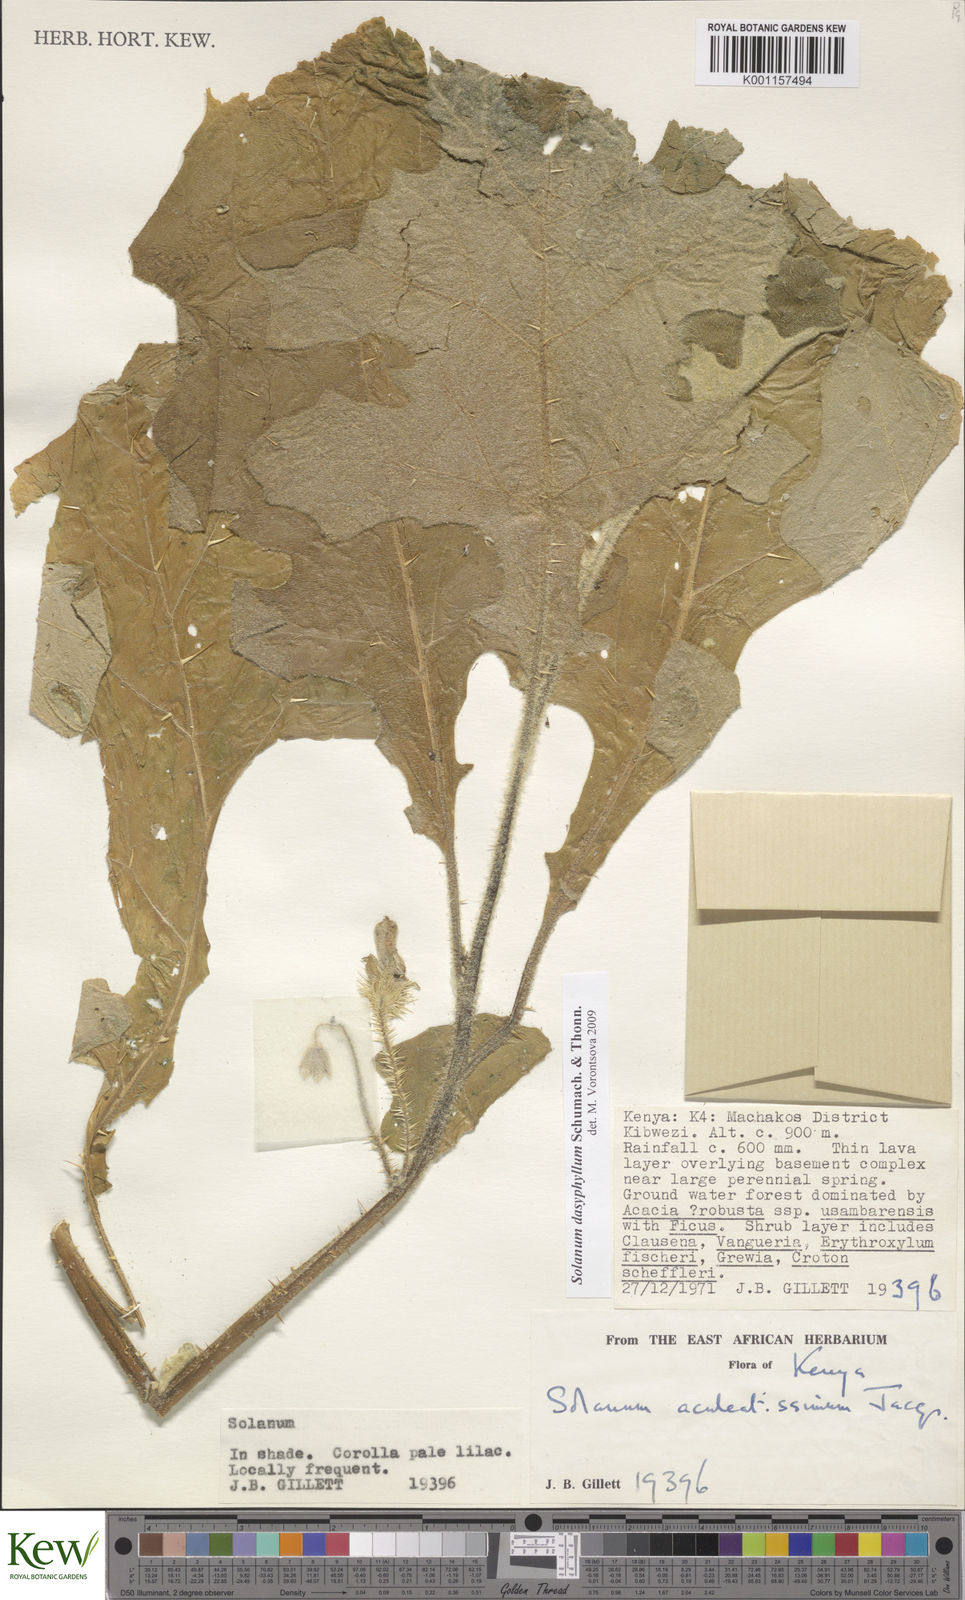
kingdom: Plantae
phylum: Tracheophyta
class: Magnoliopsida
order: Solanales
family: Solanaceae
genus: Solanum
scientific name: Solanum dasyphyllum
